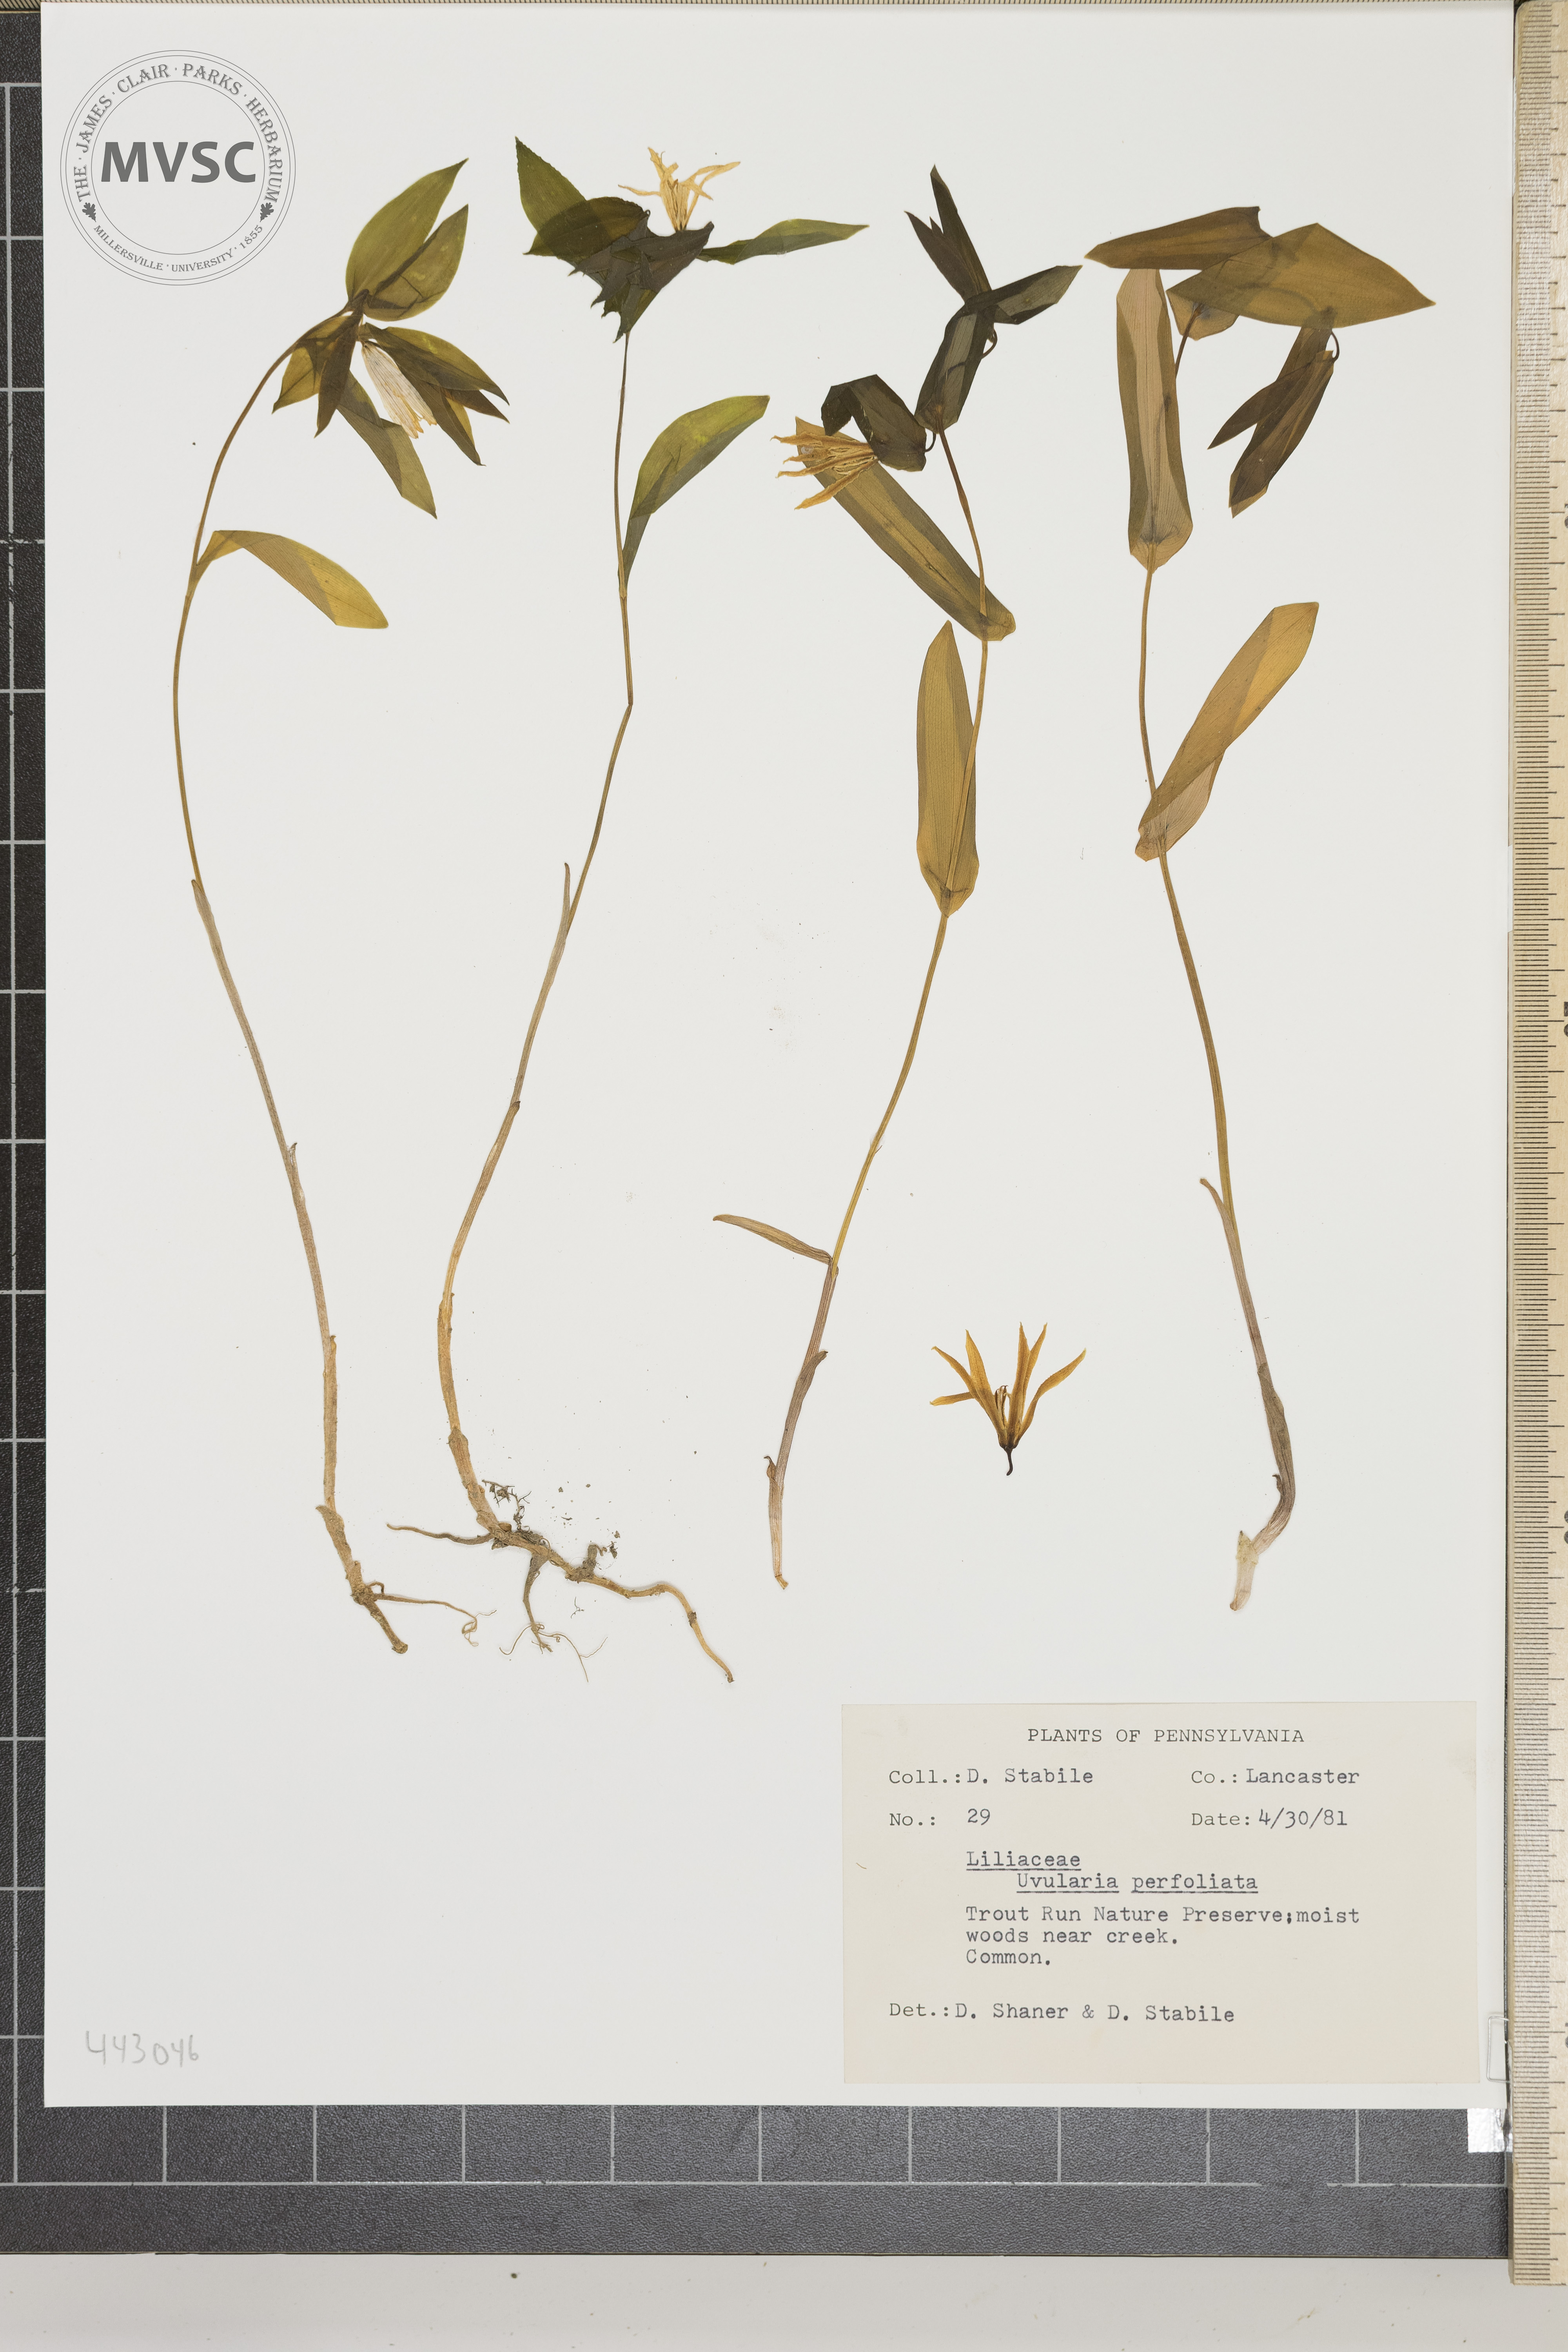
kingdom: Plantae
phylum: Tracheophyta
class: Liliopsida
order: Liliales
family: Colchicaceae
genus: Uvularia
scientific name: Uvularia perfoliata
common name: Perfoliate bellwort
